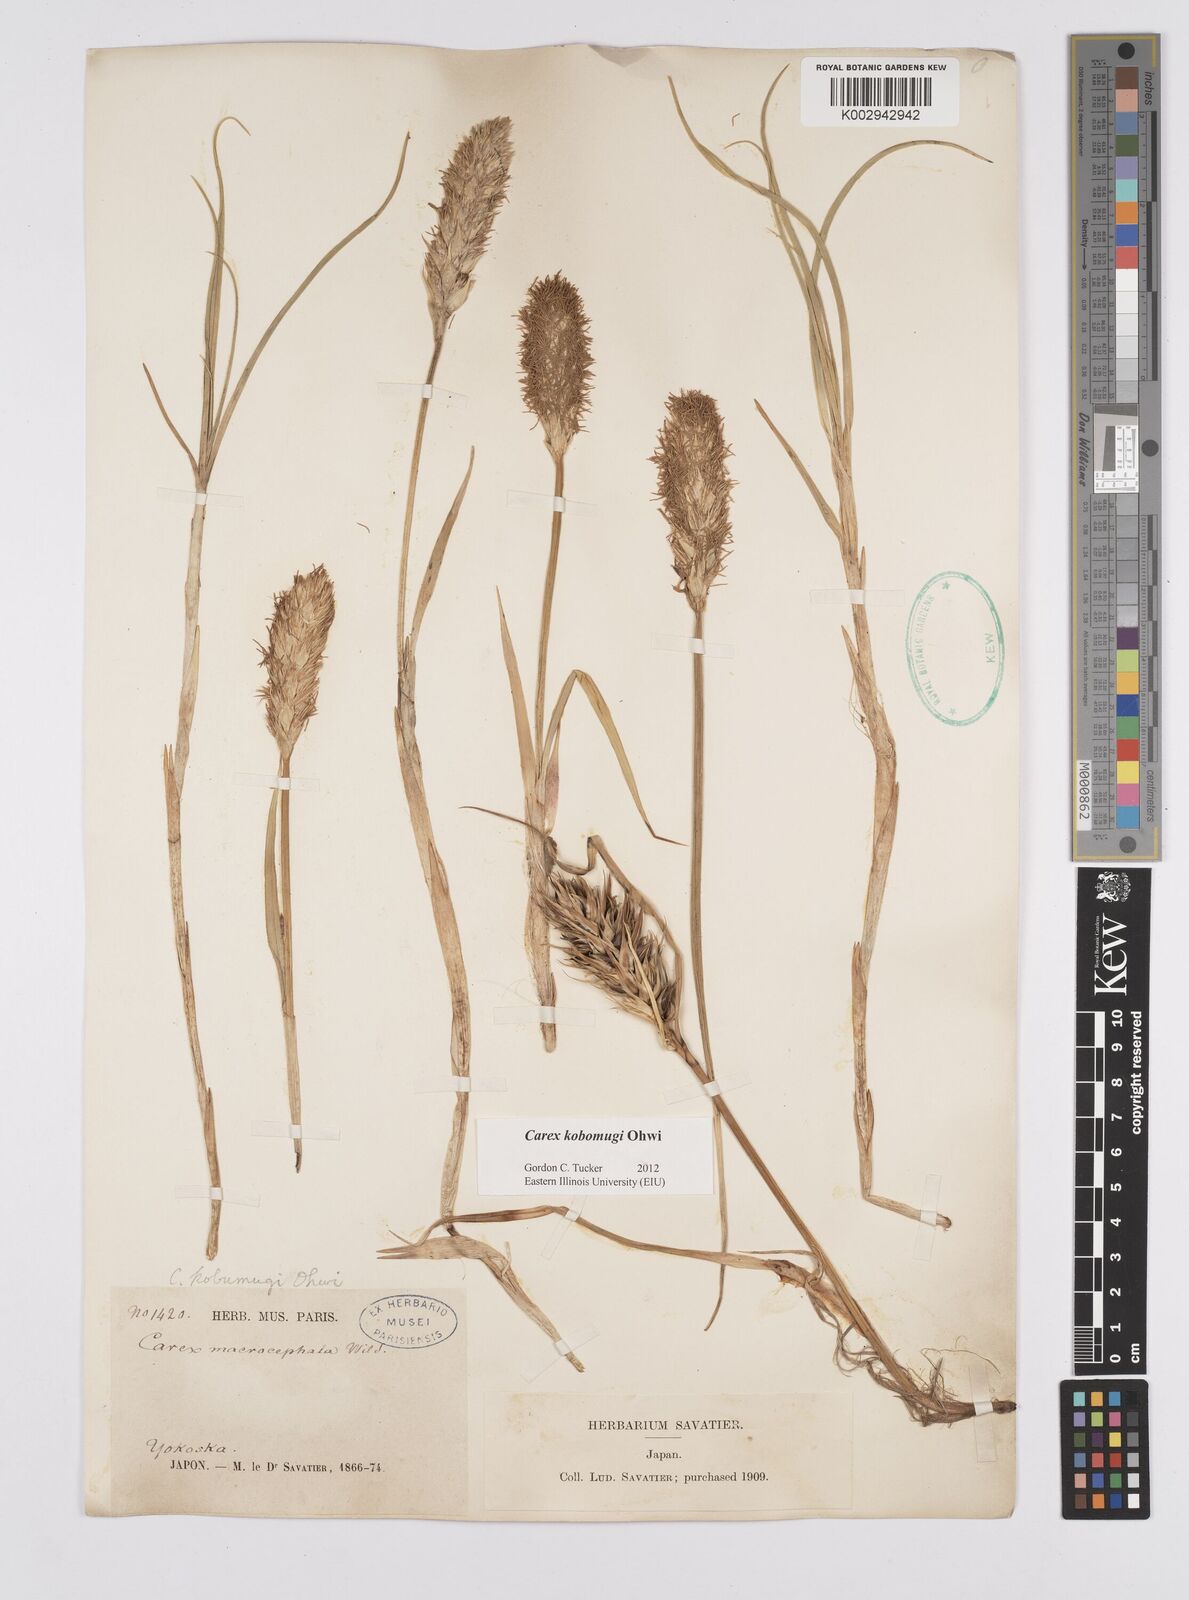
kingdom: Plantae
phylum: Tracheophyta
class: Liliopsida
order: Poales
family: Cyperaceae
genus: Carex
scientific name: Carex kobomugi
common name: Japanese sedge
